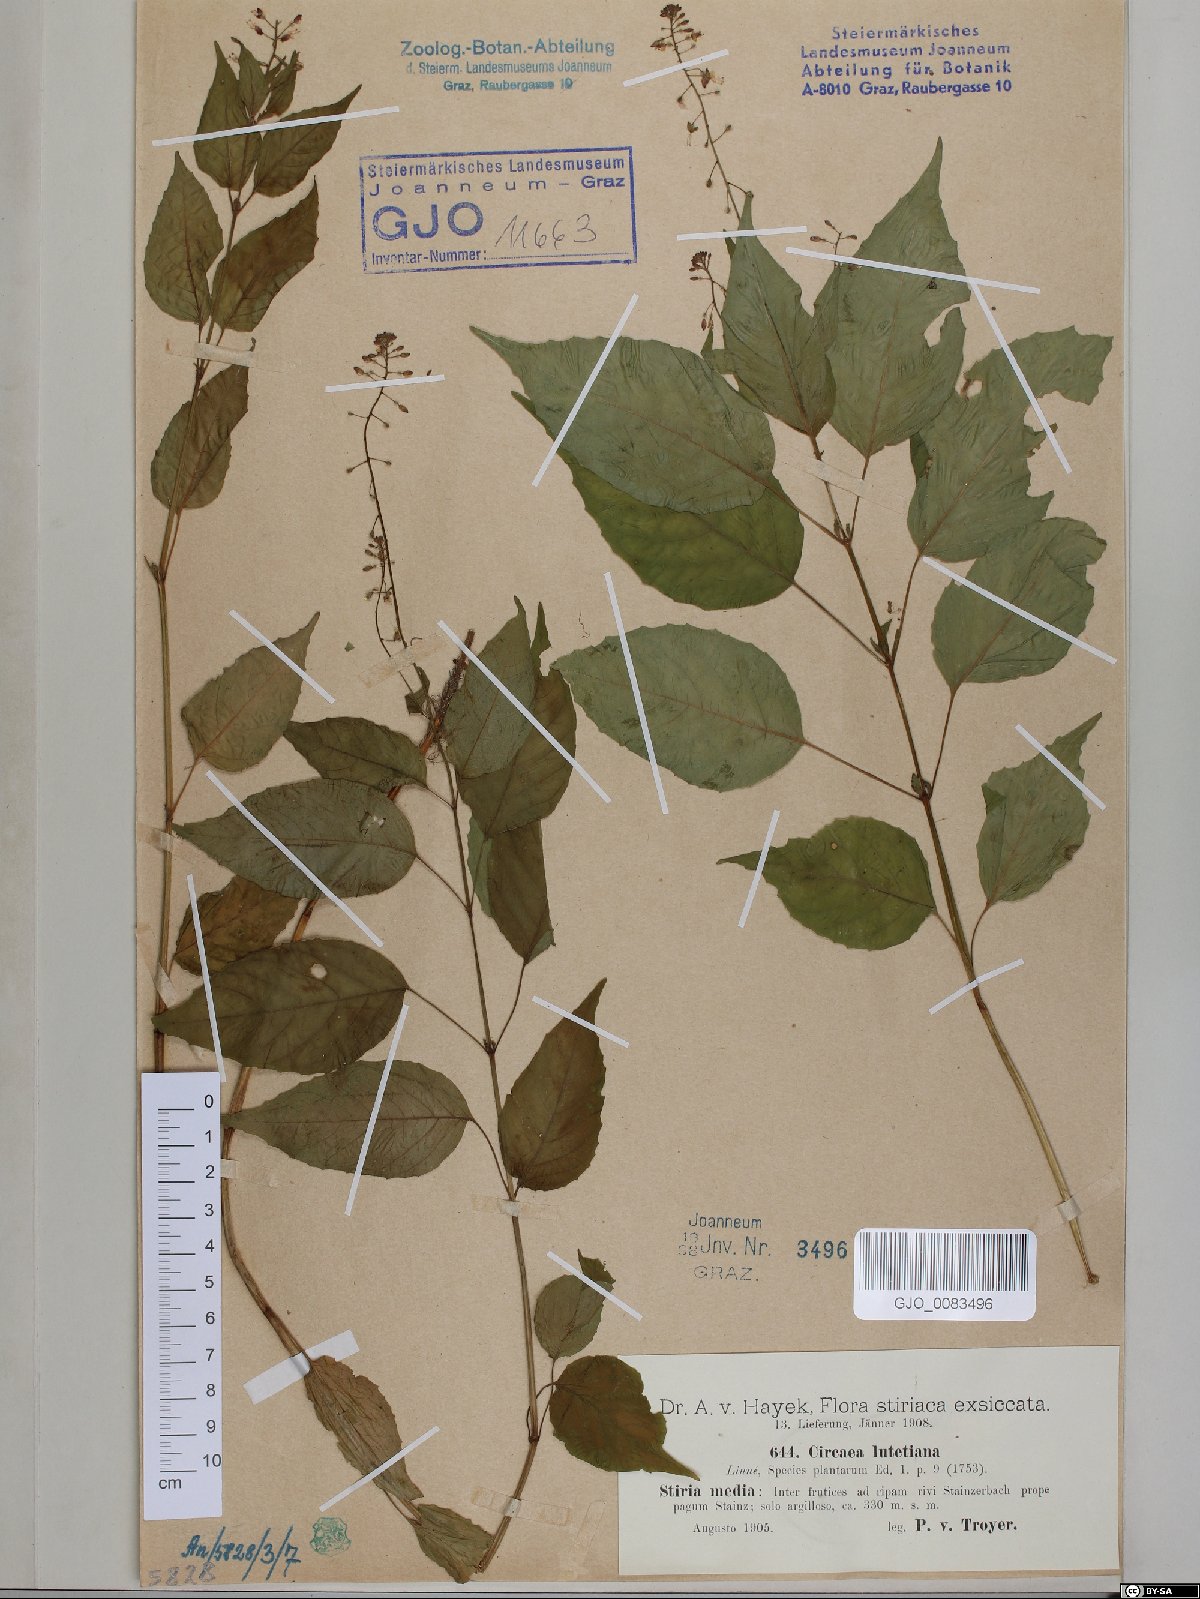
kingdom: Plantae
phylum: Tracheophyta
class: Magnoliopsida
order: Myrtales
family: Onagraceae
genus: Circaea
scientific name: Circaea lutetiana
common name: Enchanter's-nightshade
